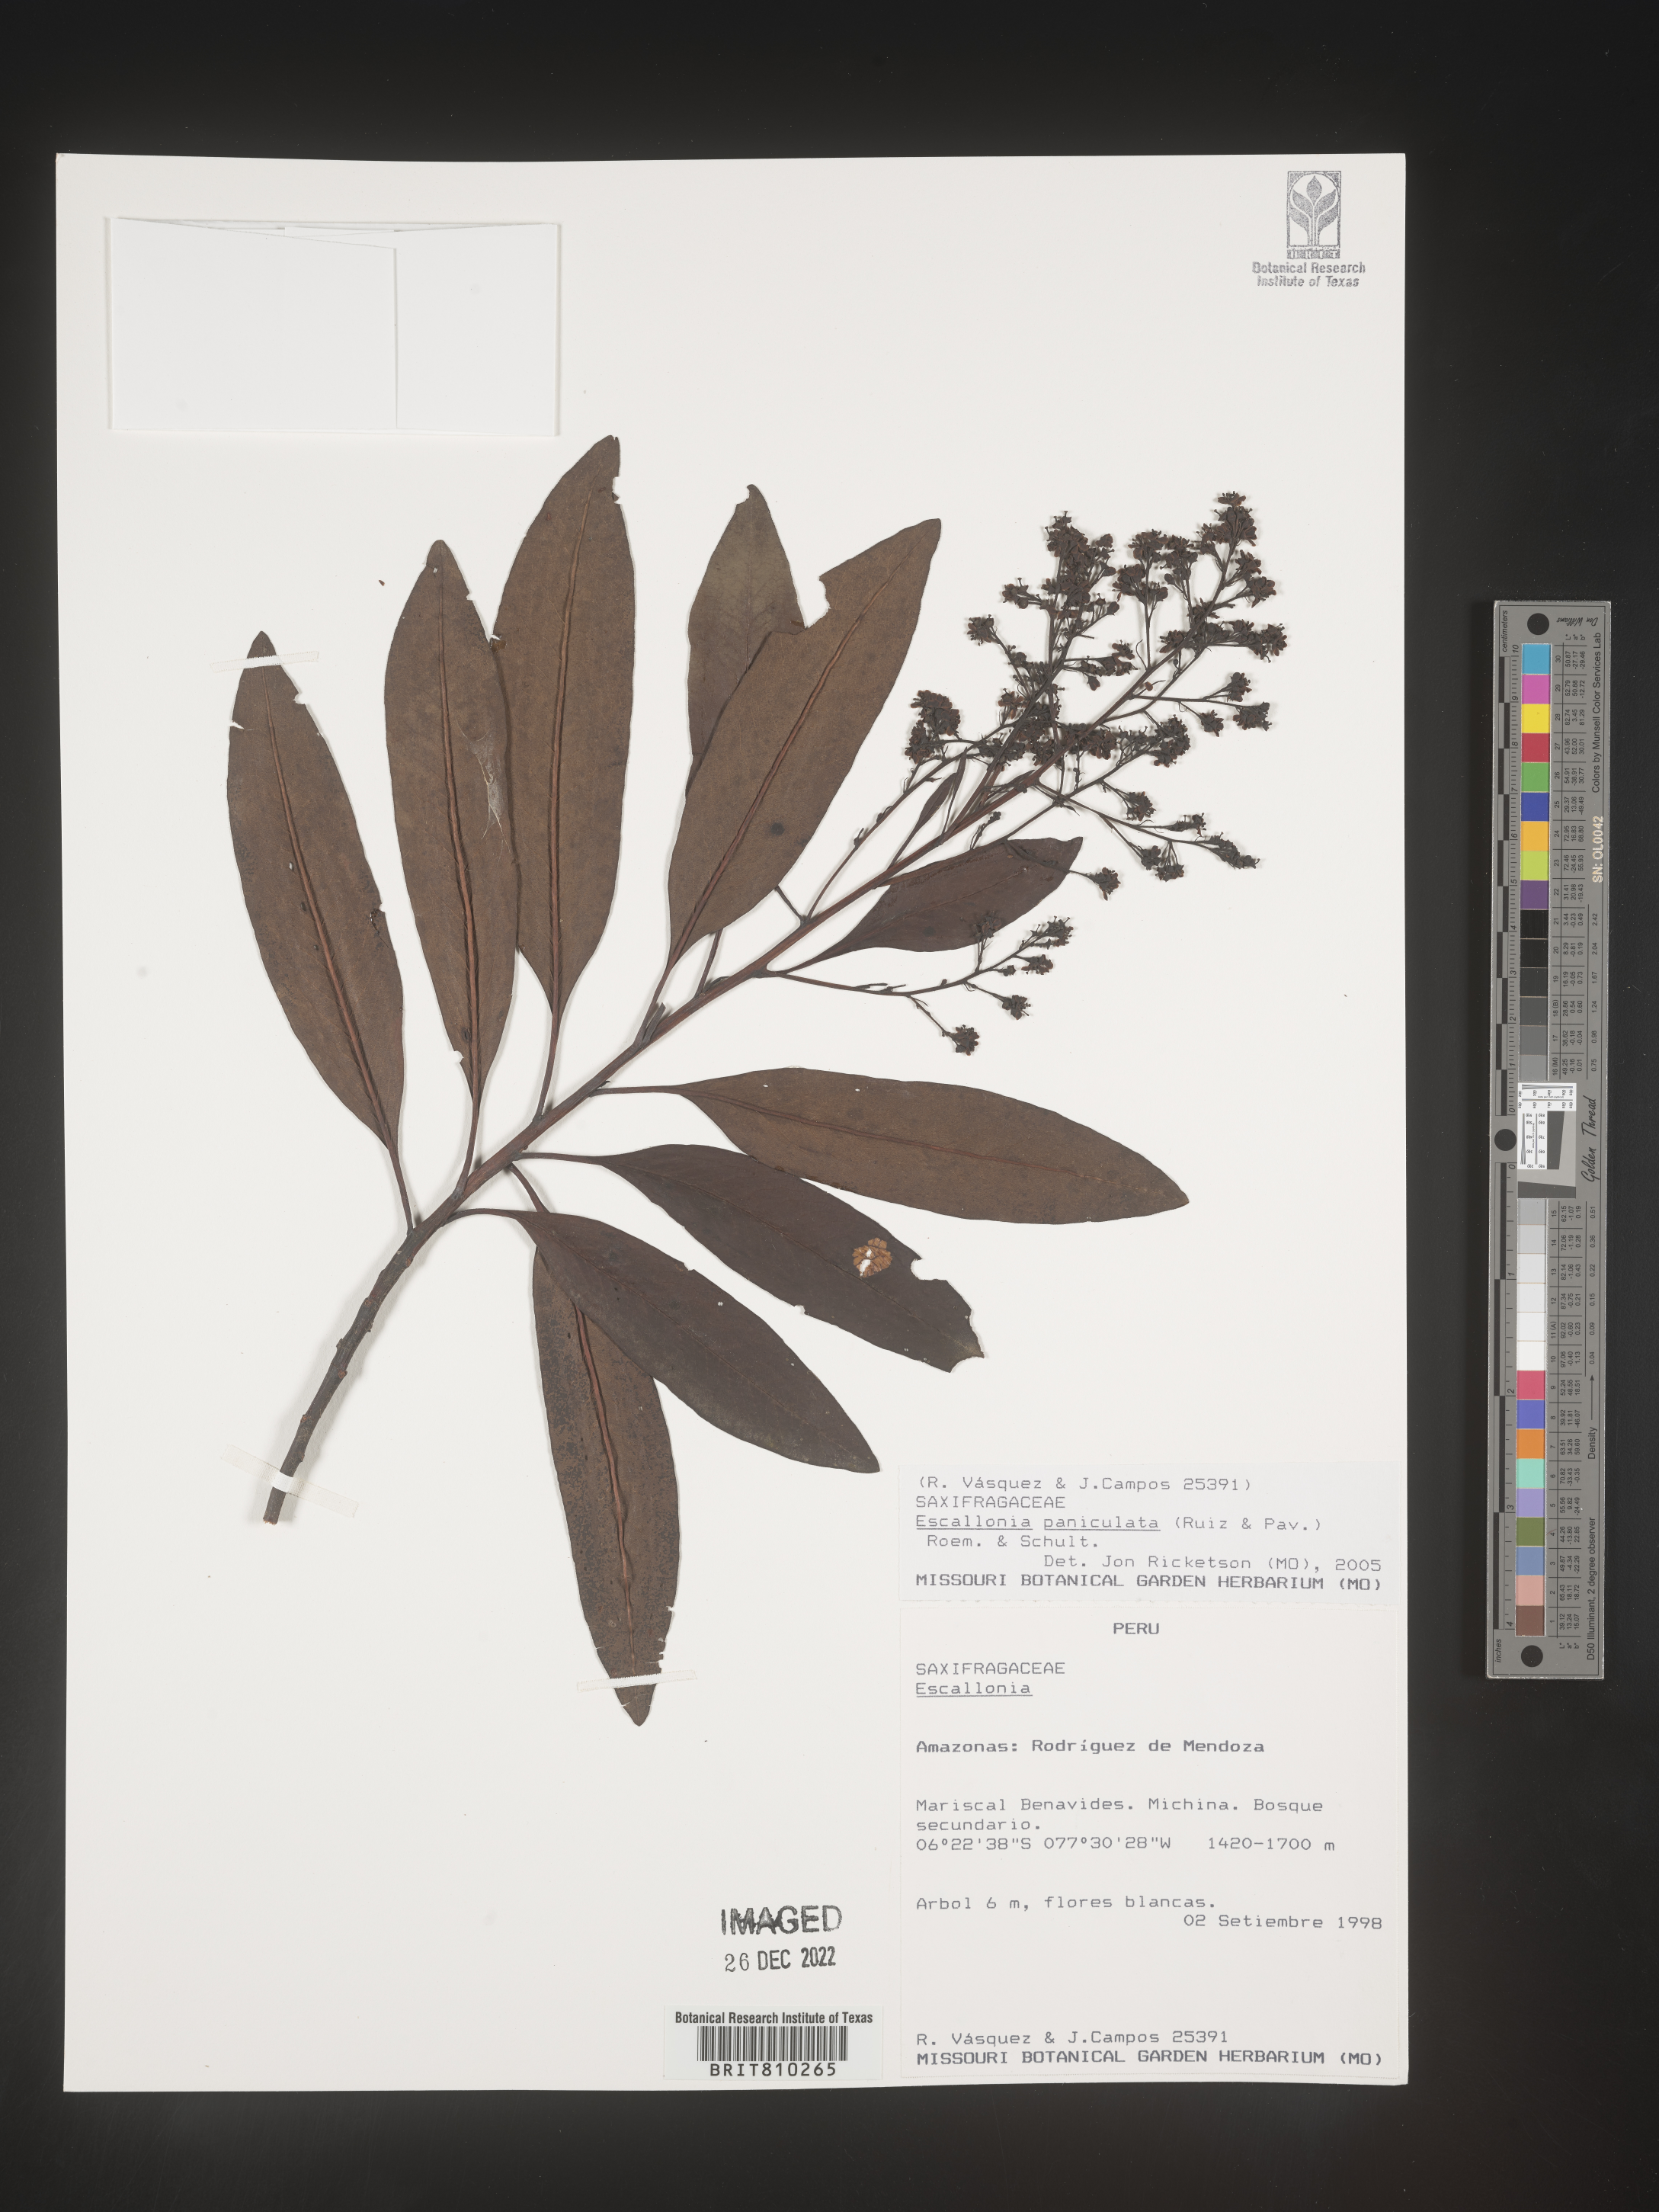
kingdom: Plantae
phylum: Tracheophyta
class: Magnoliopsida
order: Escalloniales
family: Escalloniaceae
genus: Escallonia
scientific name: Escallonia paniculata
